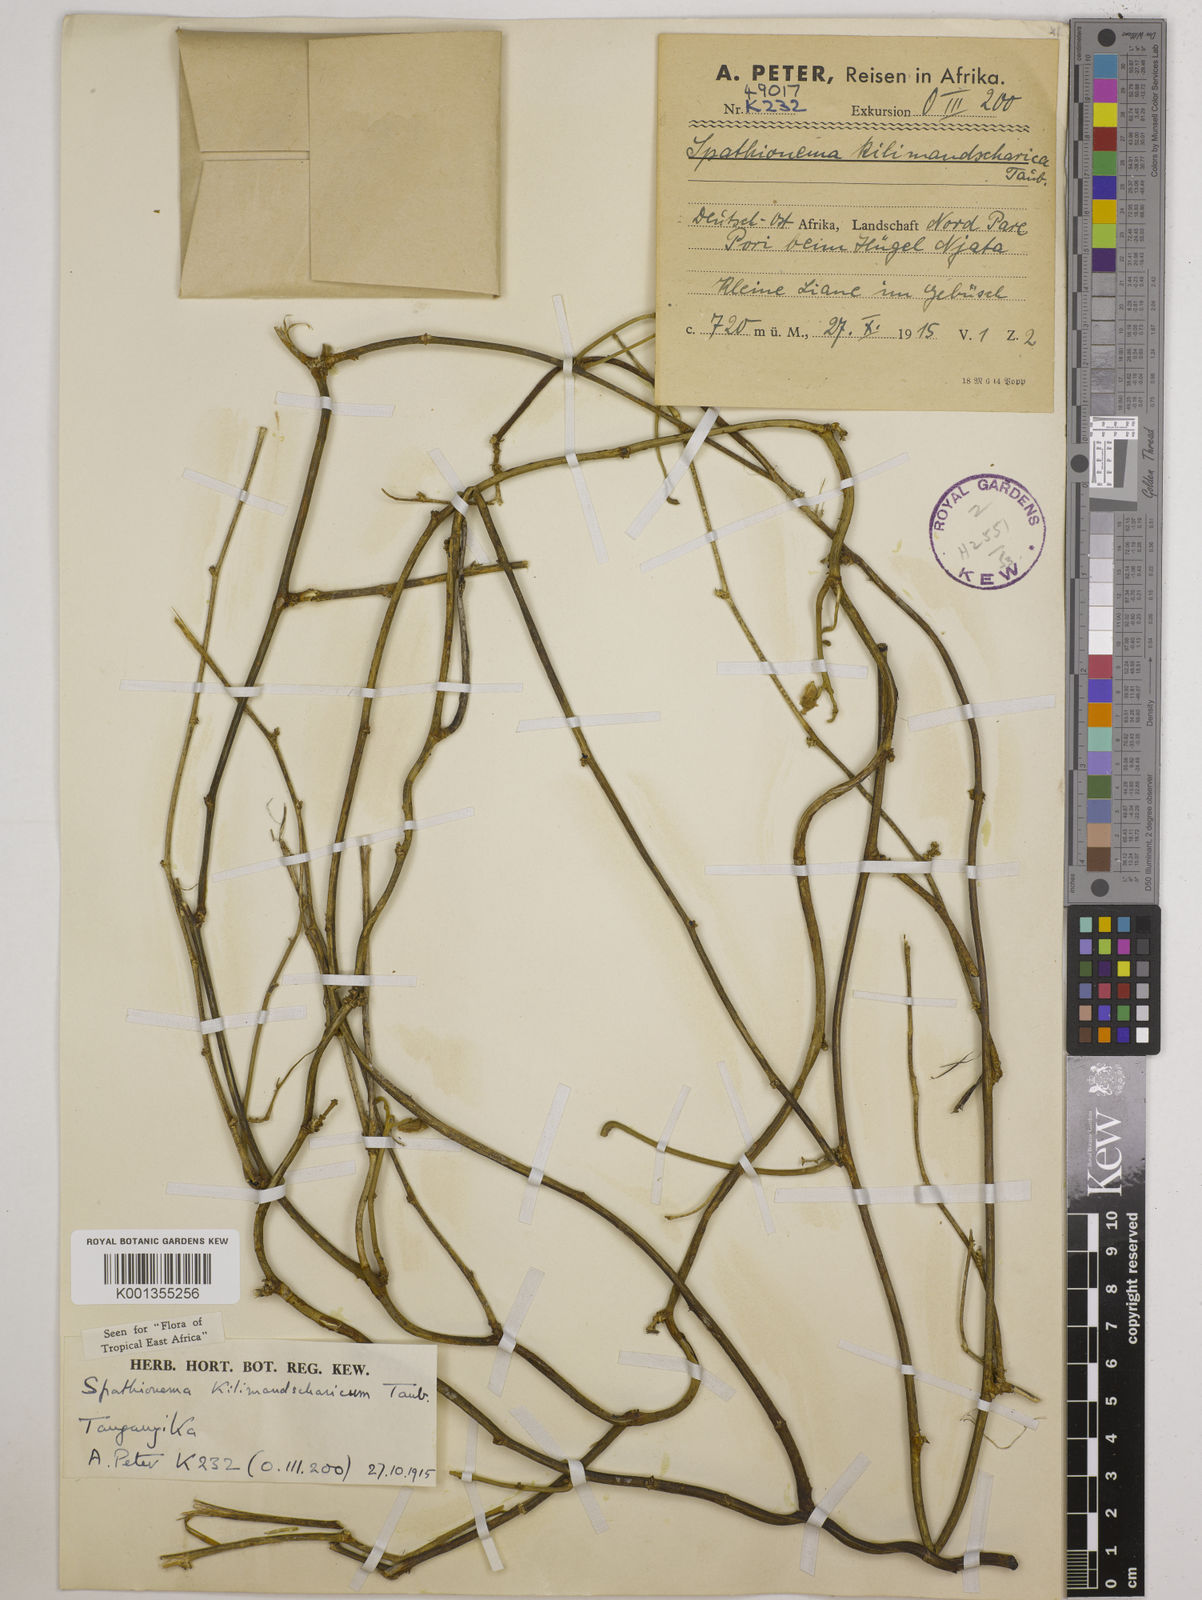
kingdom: Plantae
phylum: Tracheophyta
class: Magnoliopsida
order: Fabales
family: Fabaceae
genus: Spathionema
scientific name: Spathionema kilimandscharicum
